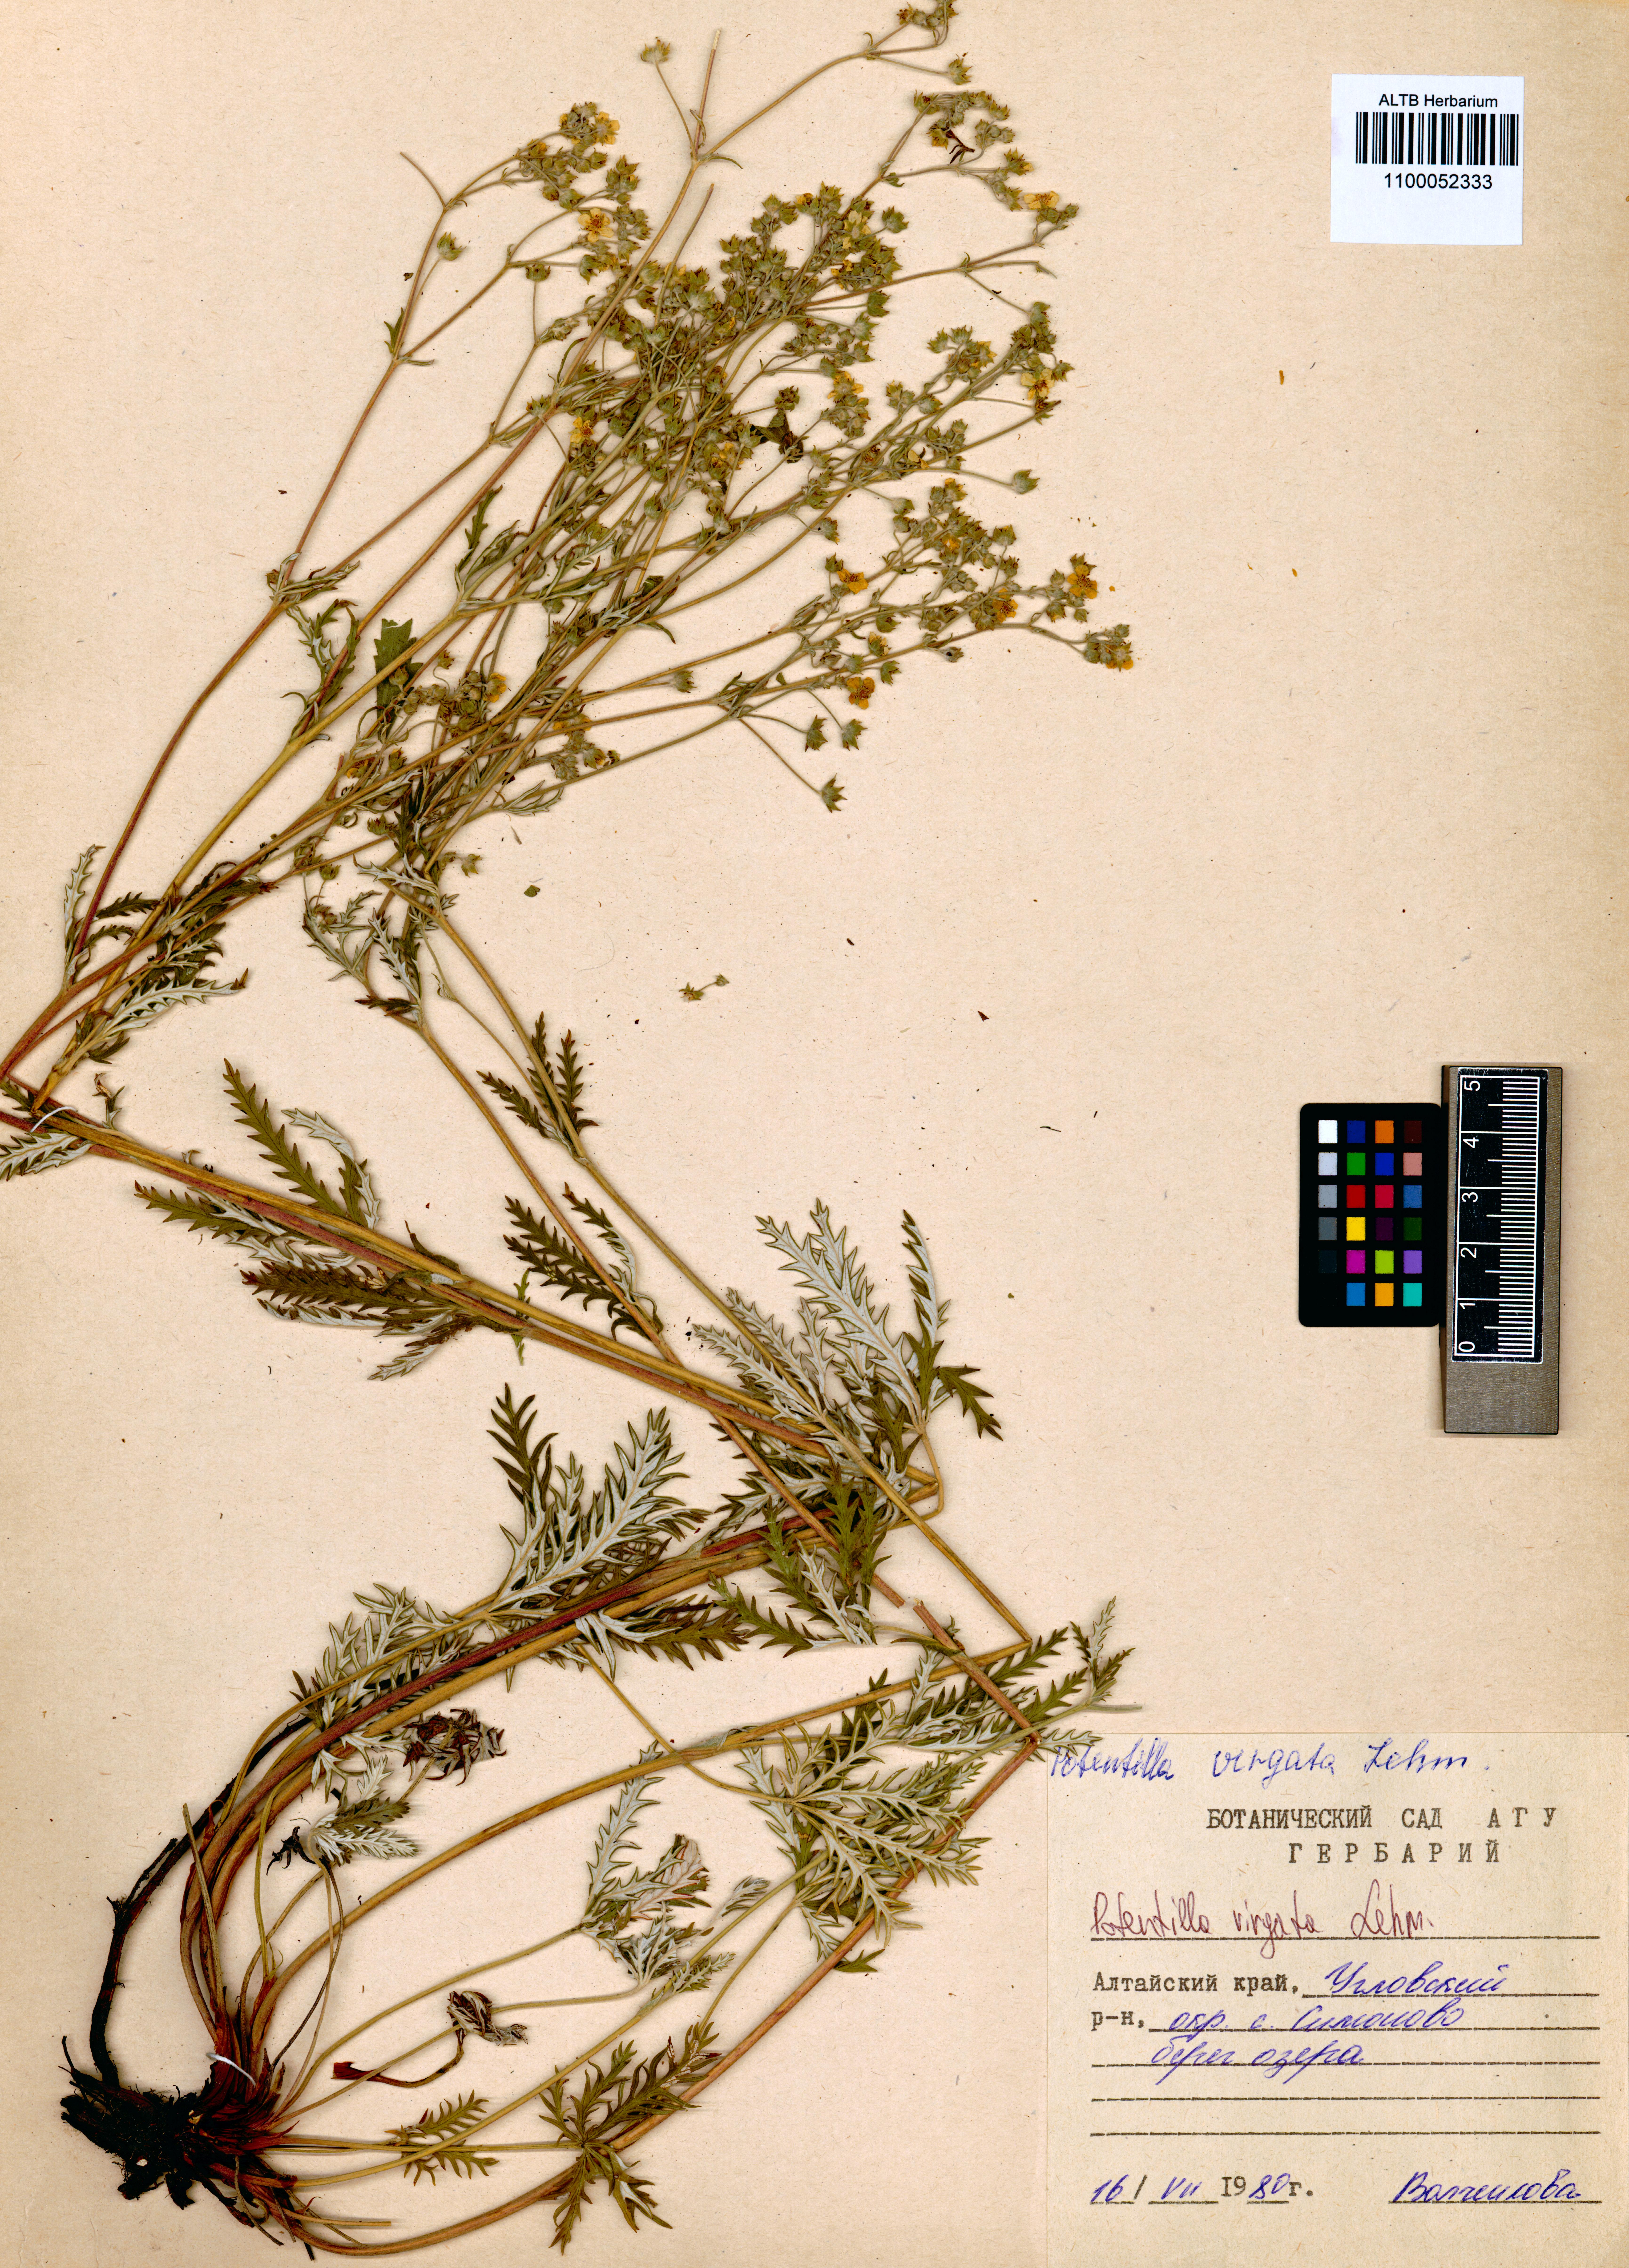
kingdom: Plantae
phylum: Tracheophyta
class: Magnoliopsida
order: Rosales
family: Rosaceae
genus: Potentilla
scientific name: Potentilla virgata
